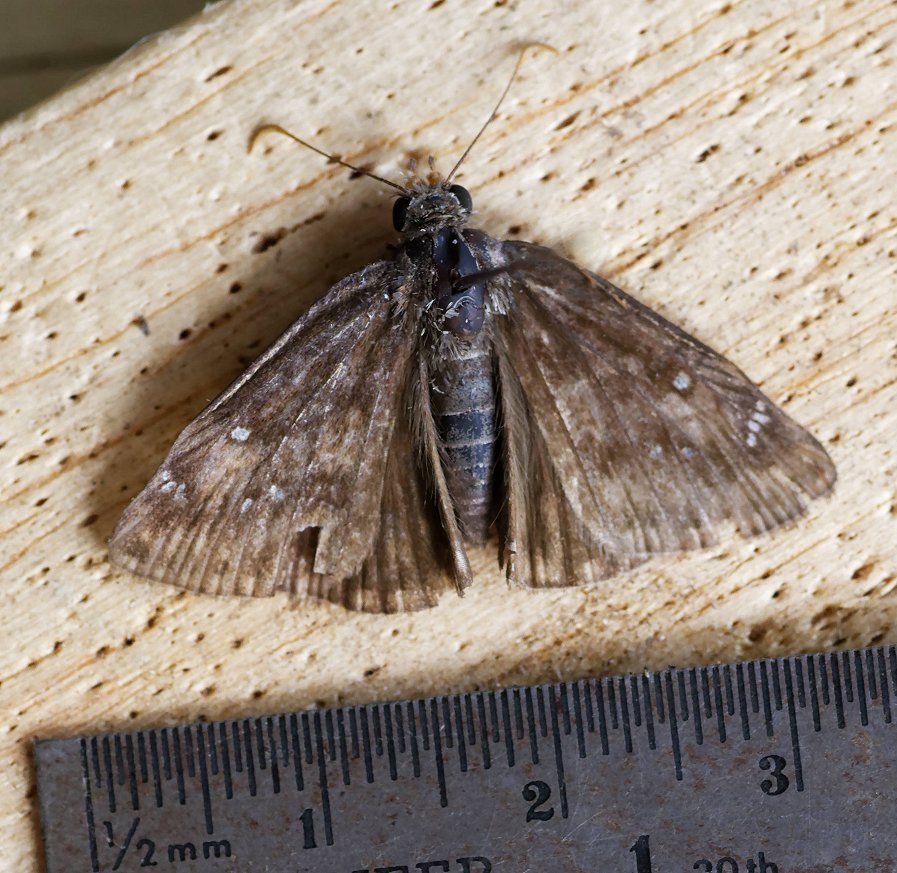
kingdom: Animalia
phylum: Arthropoda
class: Insecta
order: Lepidoptera
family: Hesperiidae
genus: Gesta
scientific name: Gesta
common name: Horace's Duskywing
